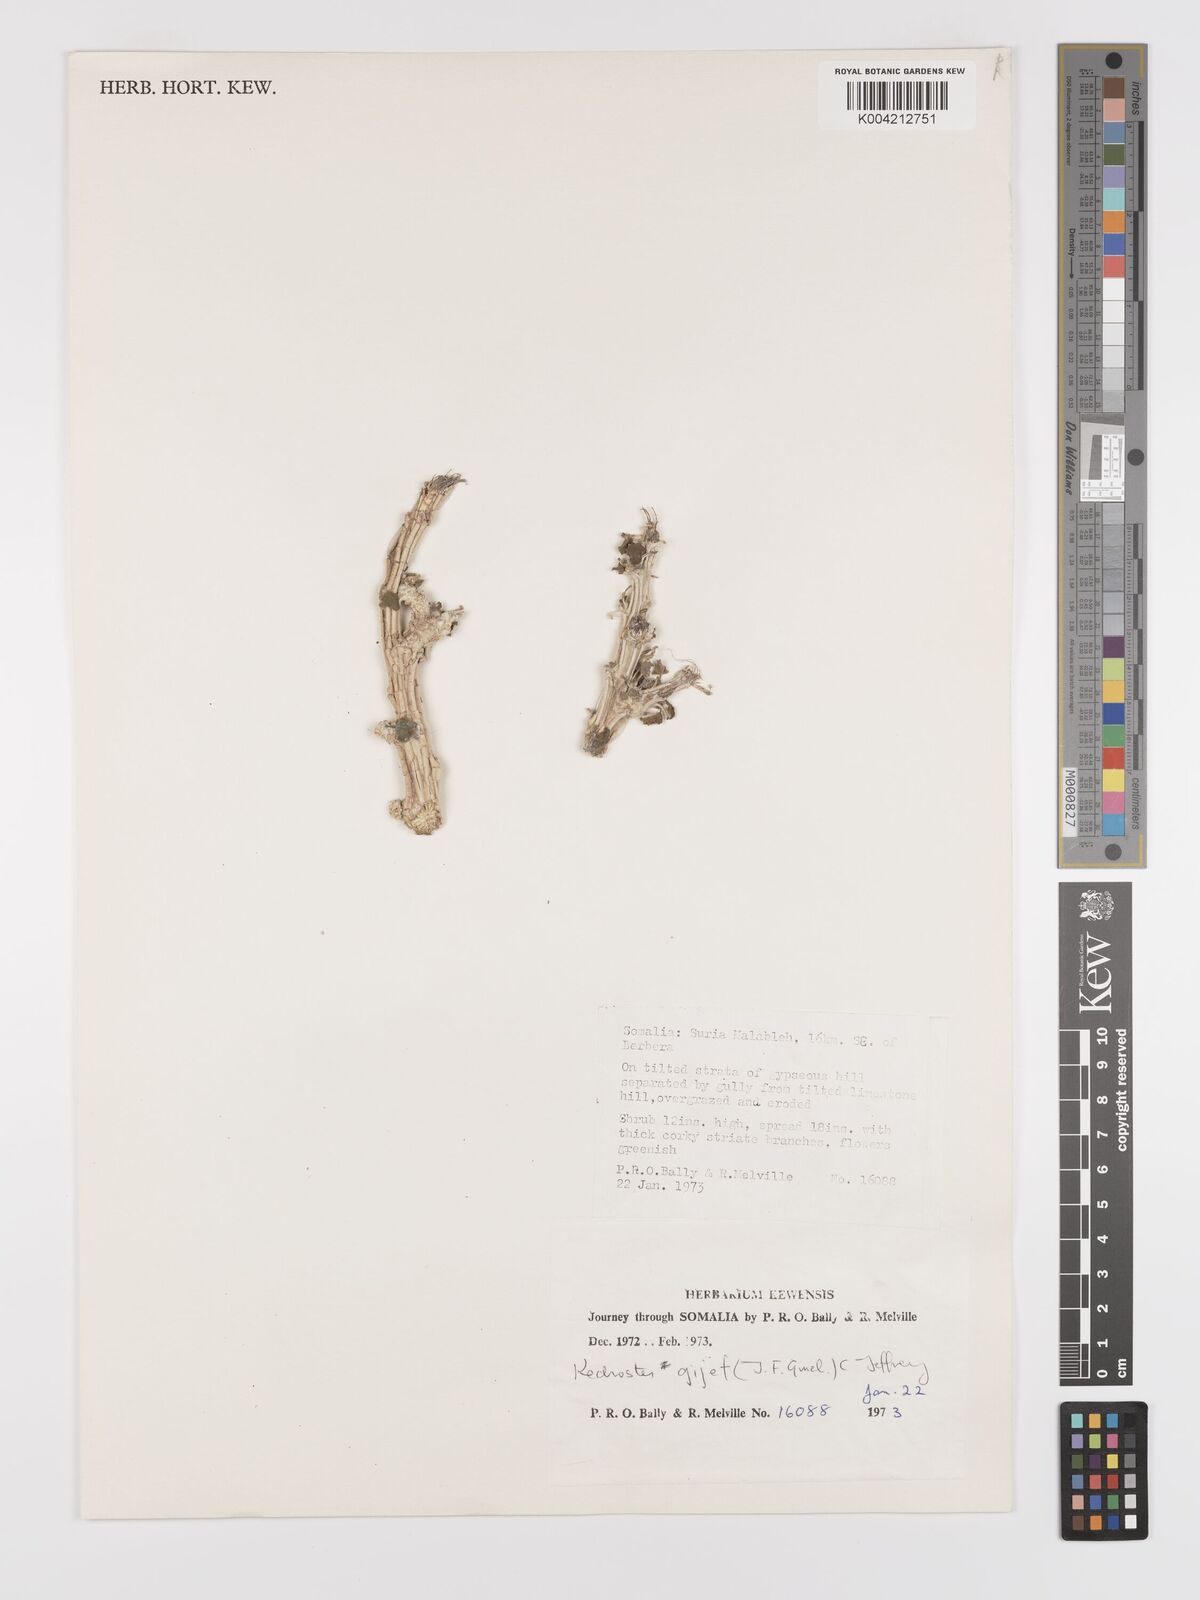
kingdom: Plantae
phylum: Tracheophyta
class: Magnoliopsida
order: Cucurbitales
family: Cucurbitaceae
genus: Corallocarpus
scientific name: Corallocarpus glomeruliflorus
